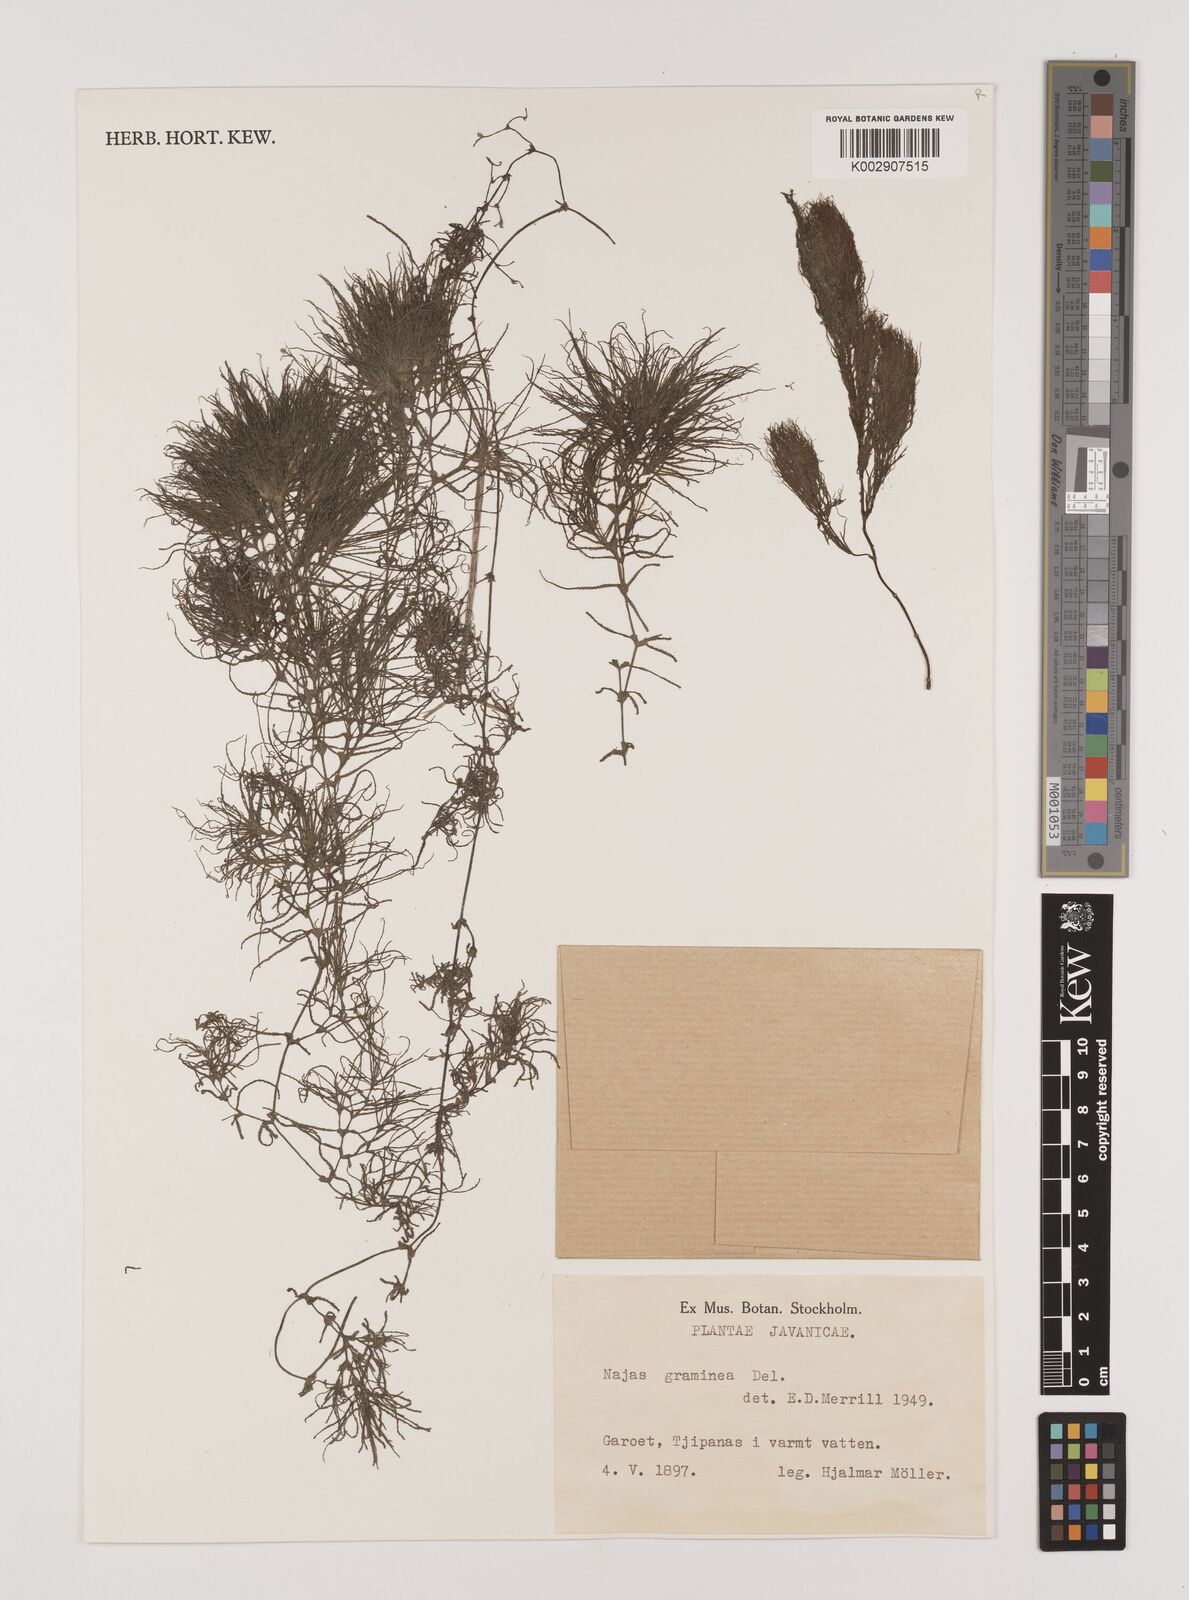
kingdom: Plantae
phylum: Tracheophyta
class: Liliopsida
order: Alismatales
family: Hydrocharitaceae
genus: Najas
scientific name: Najas graminea
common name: Ricefield waternymph
